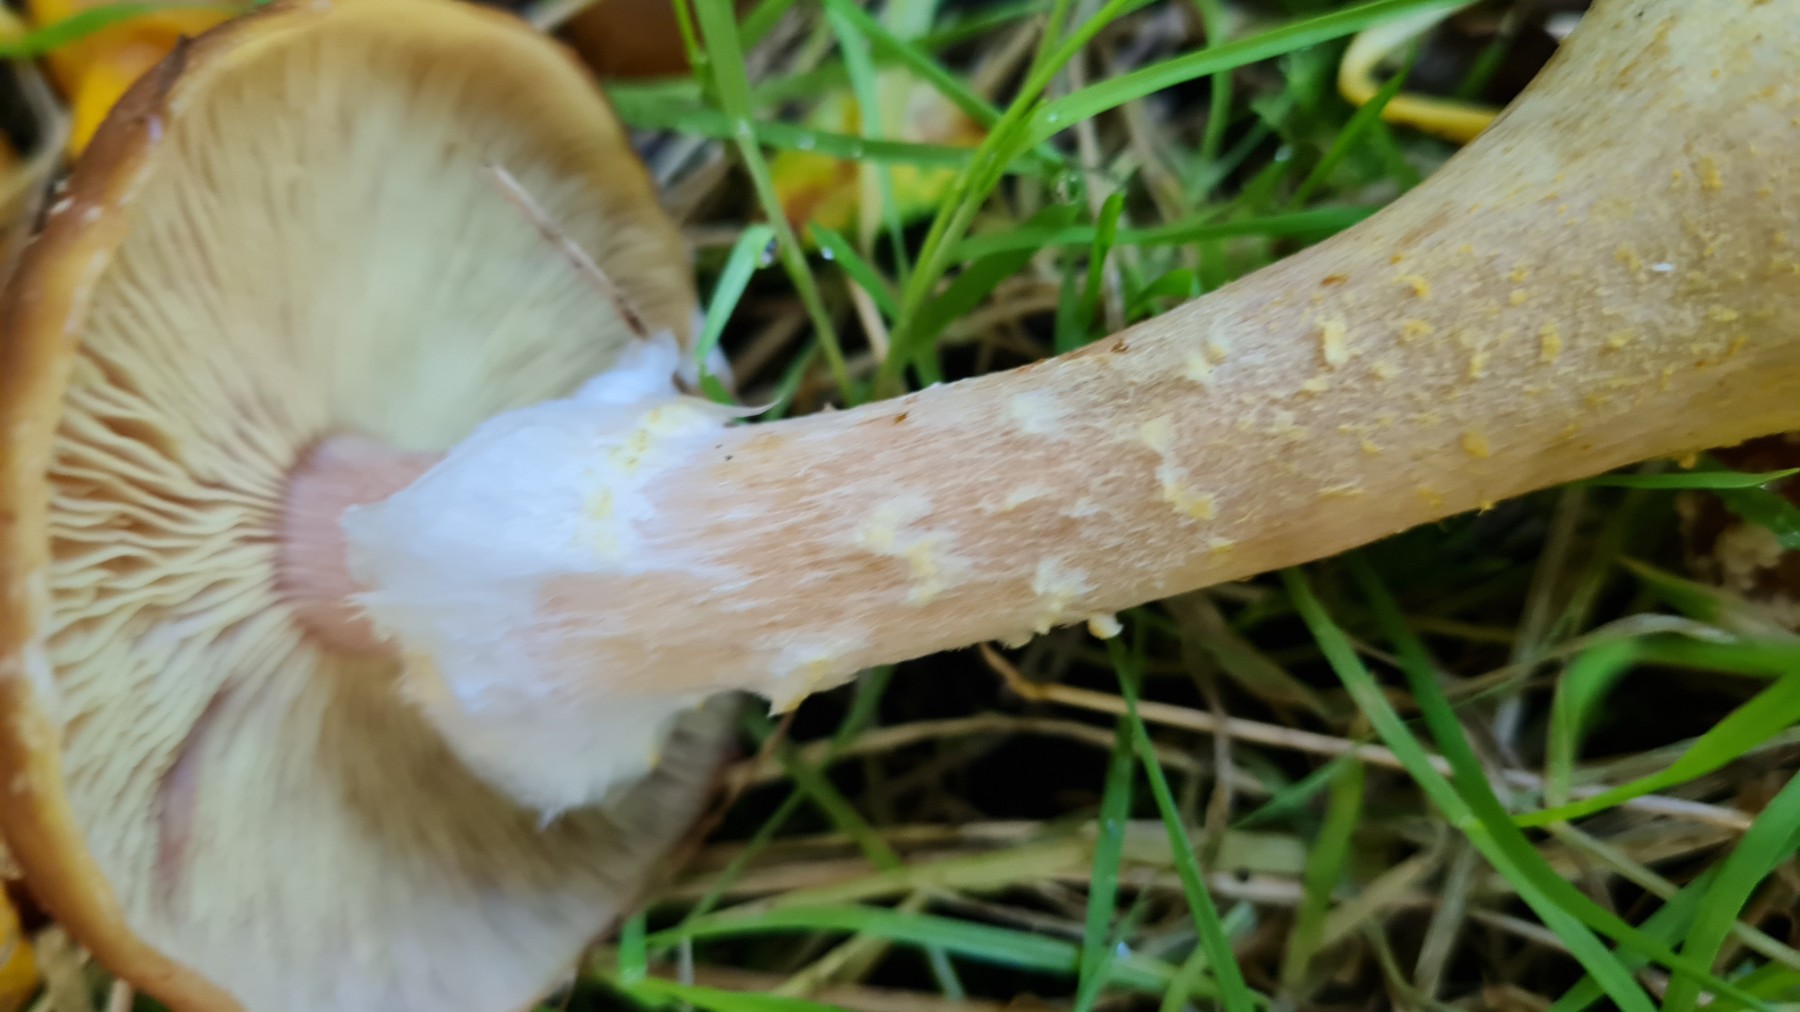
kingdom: Fungi
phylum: Basidiomycota
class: Agaricomycetes
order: Agaricales
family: Physalacriaceae
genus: Armillaria
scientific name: Armillaria lutea
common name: køllestokket honningsvamp
